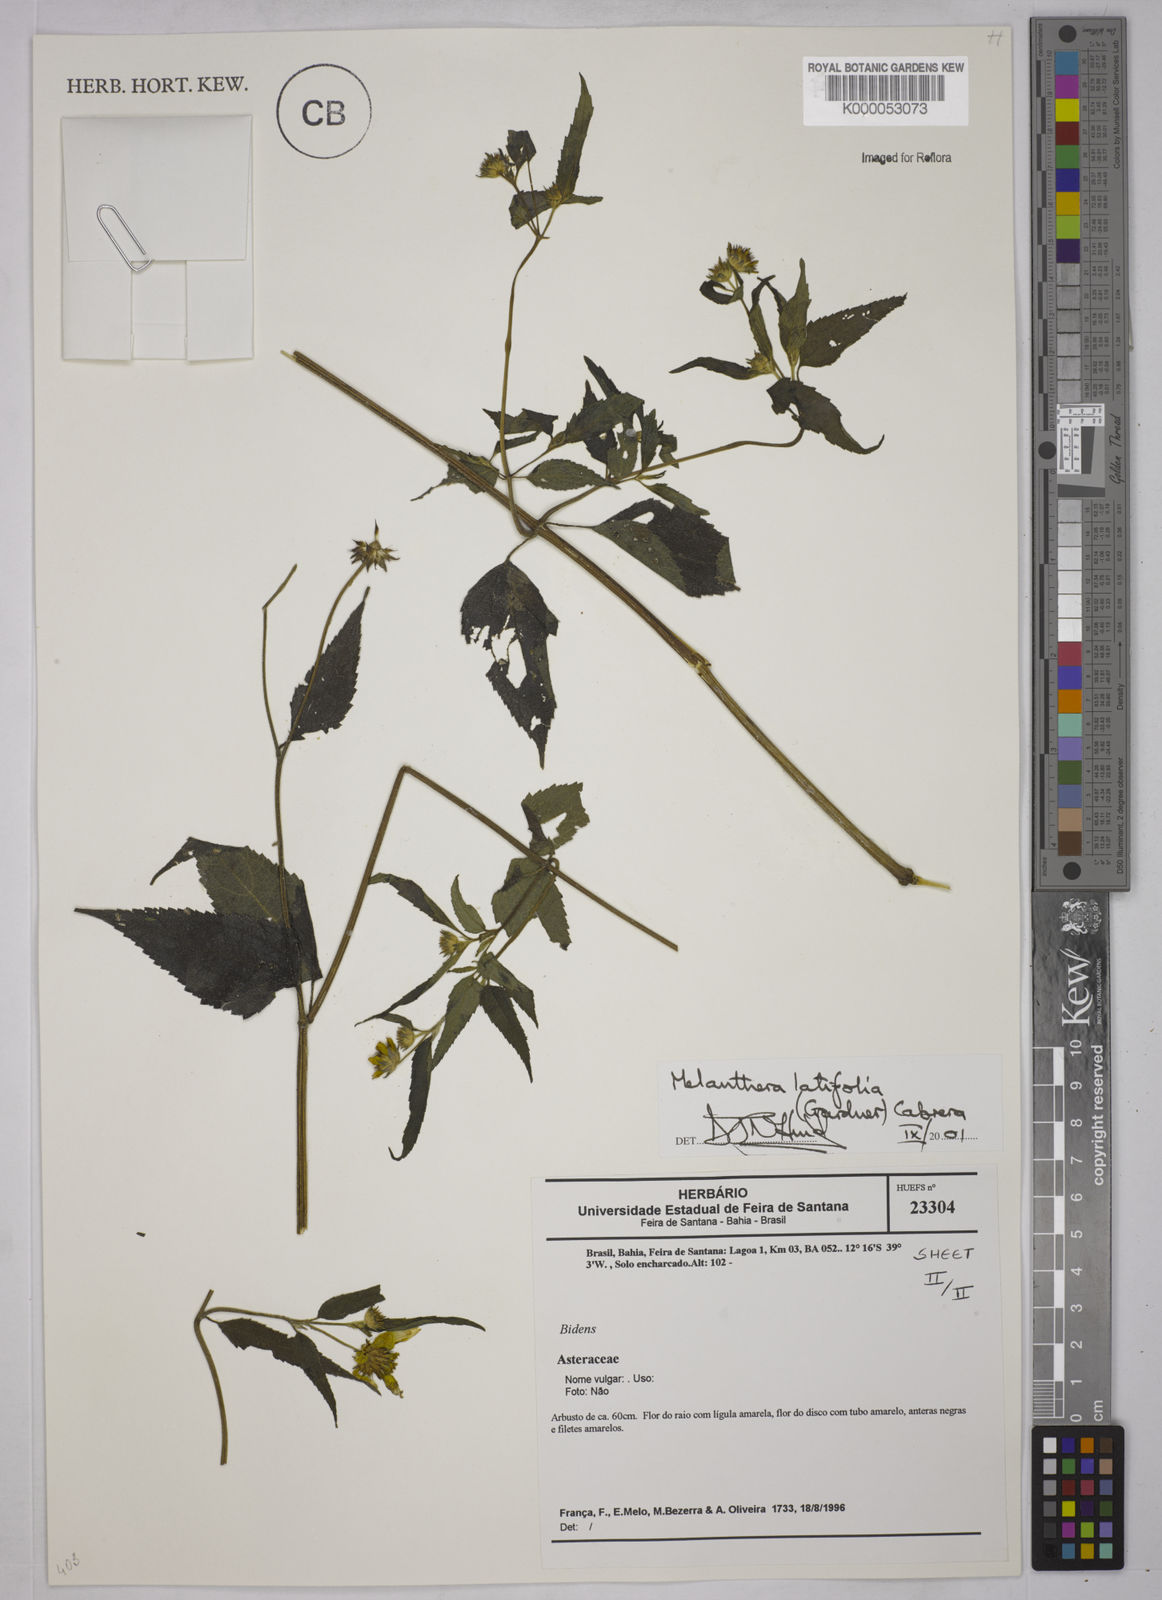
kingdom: Plantae
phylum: Tracheophyta
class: Magnoliopsida
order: Asterales
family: Asteraceae
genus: Echinocephalum
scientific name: Echinocephalum latifolium
